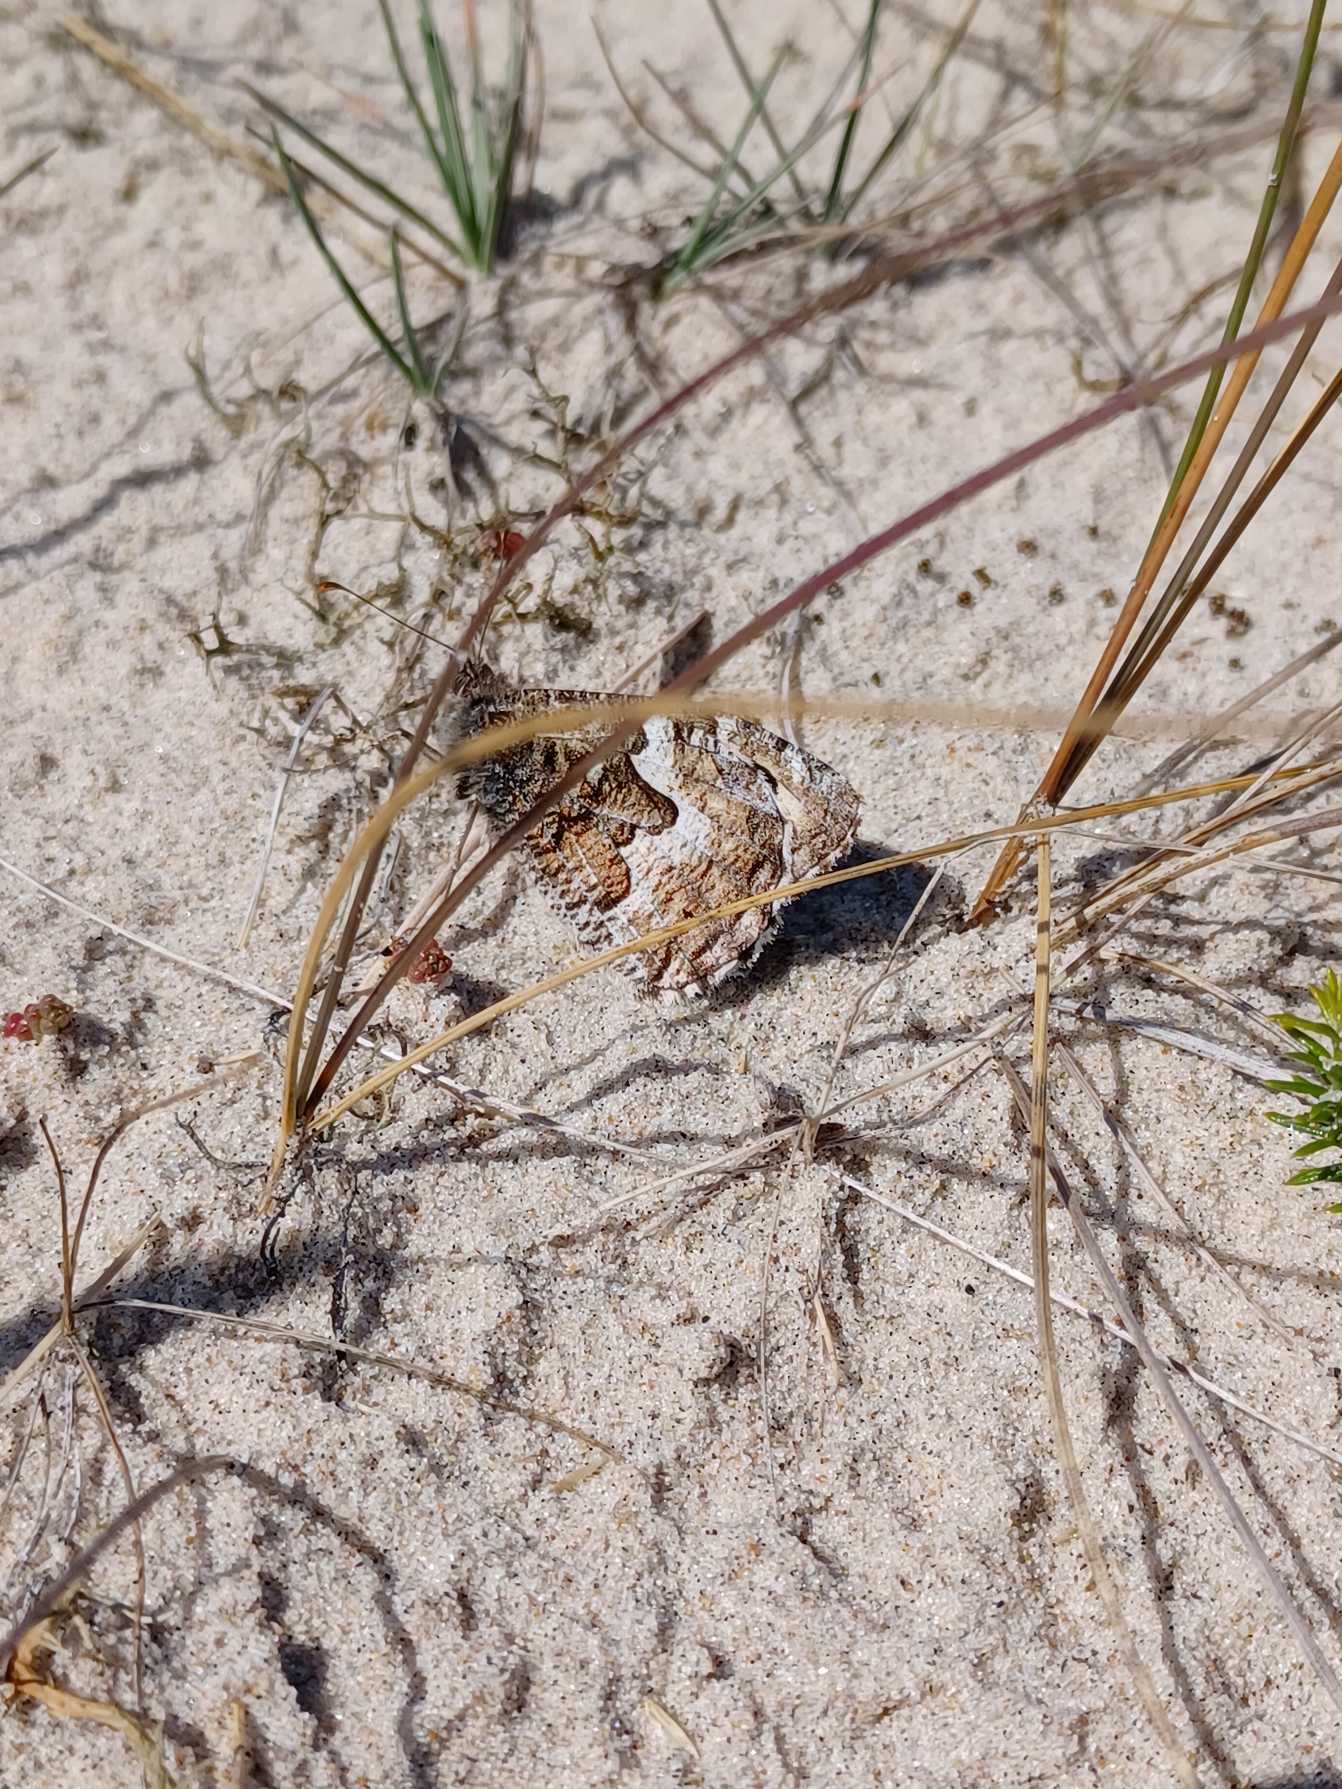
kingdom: Animalia
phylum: Arthropoda
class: Insecta
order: Lepidoptera
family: Nymphalidae
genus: Hipparchia
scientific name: Hipparchia semele
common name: Sandrandøje
